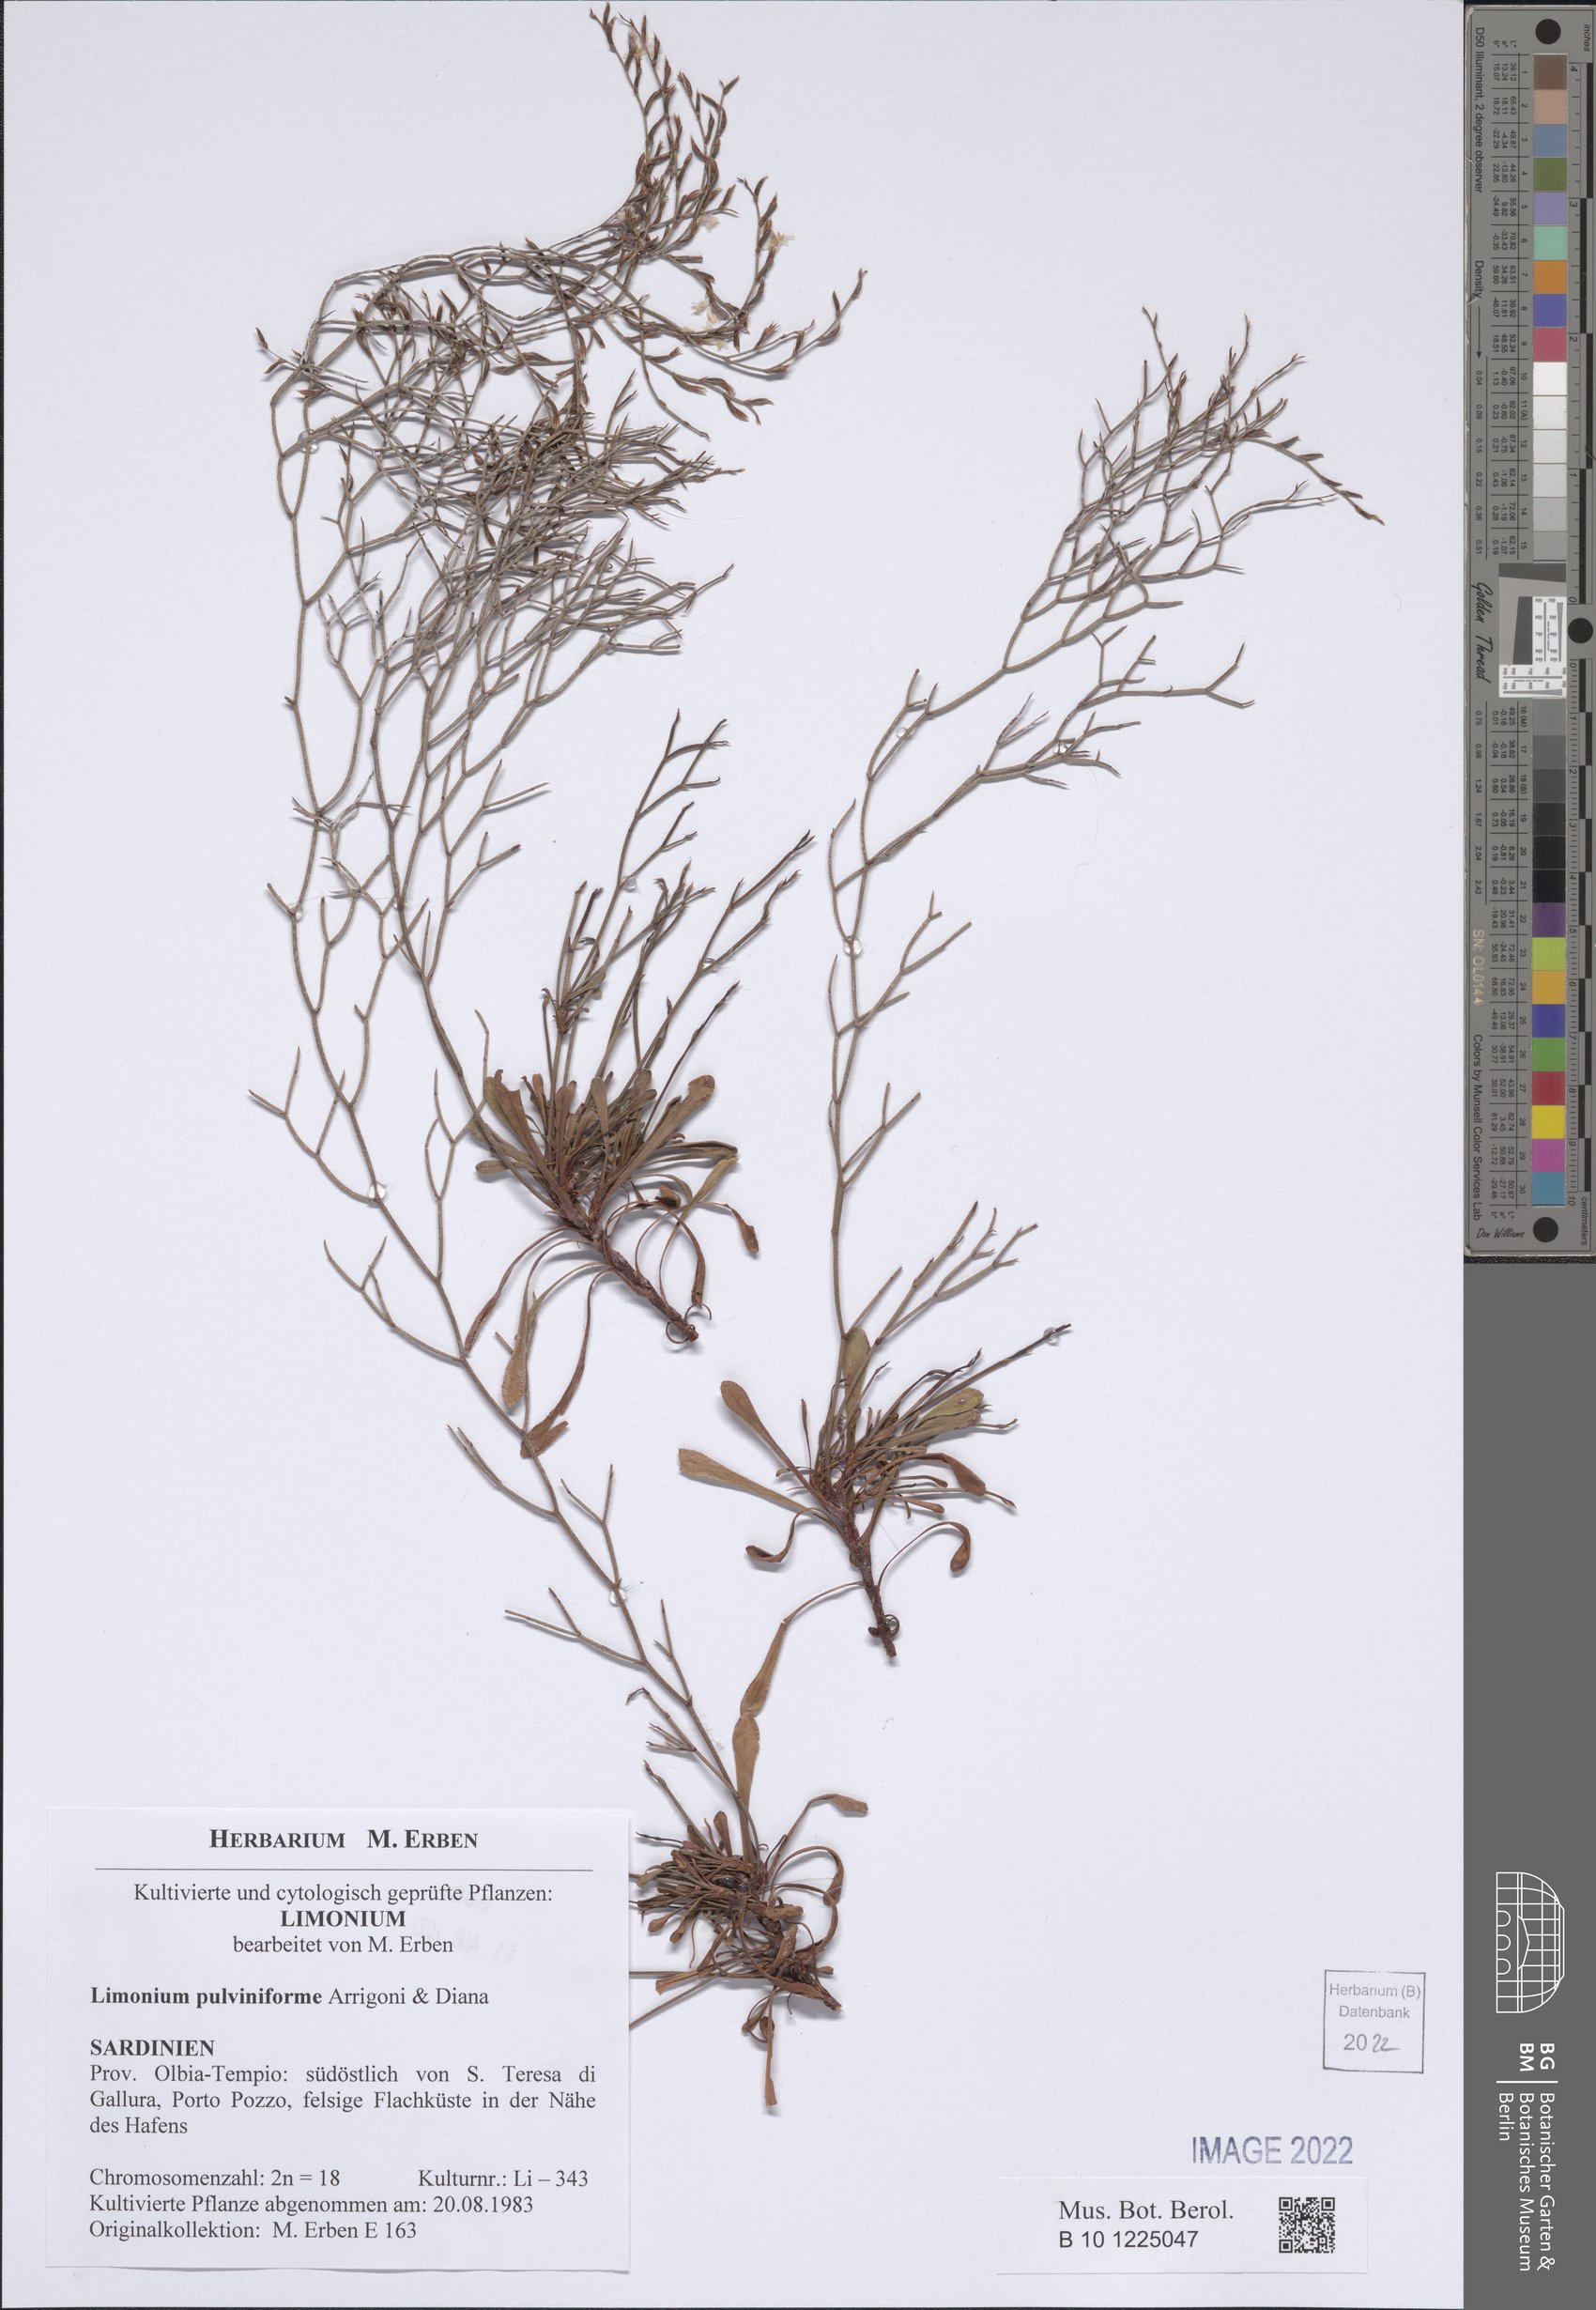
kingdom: Plantae
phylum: Tracheophyta
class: Magnoliopsida
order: Caryophyllales
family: Plumbaginaceae
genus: Limonium
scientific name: Limonium pulviniforme
